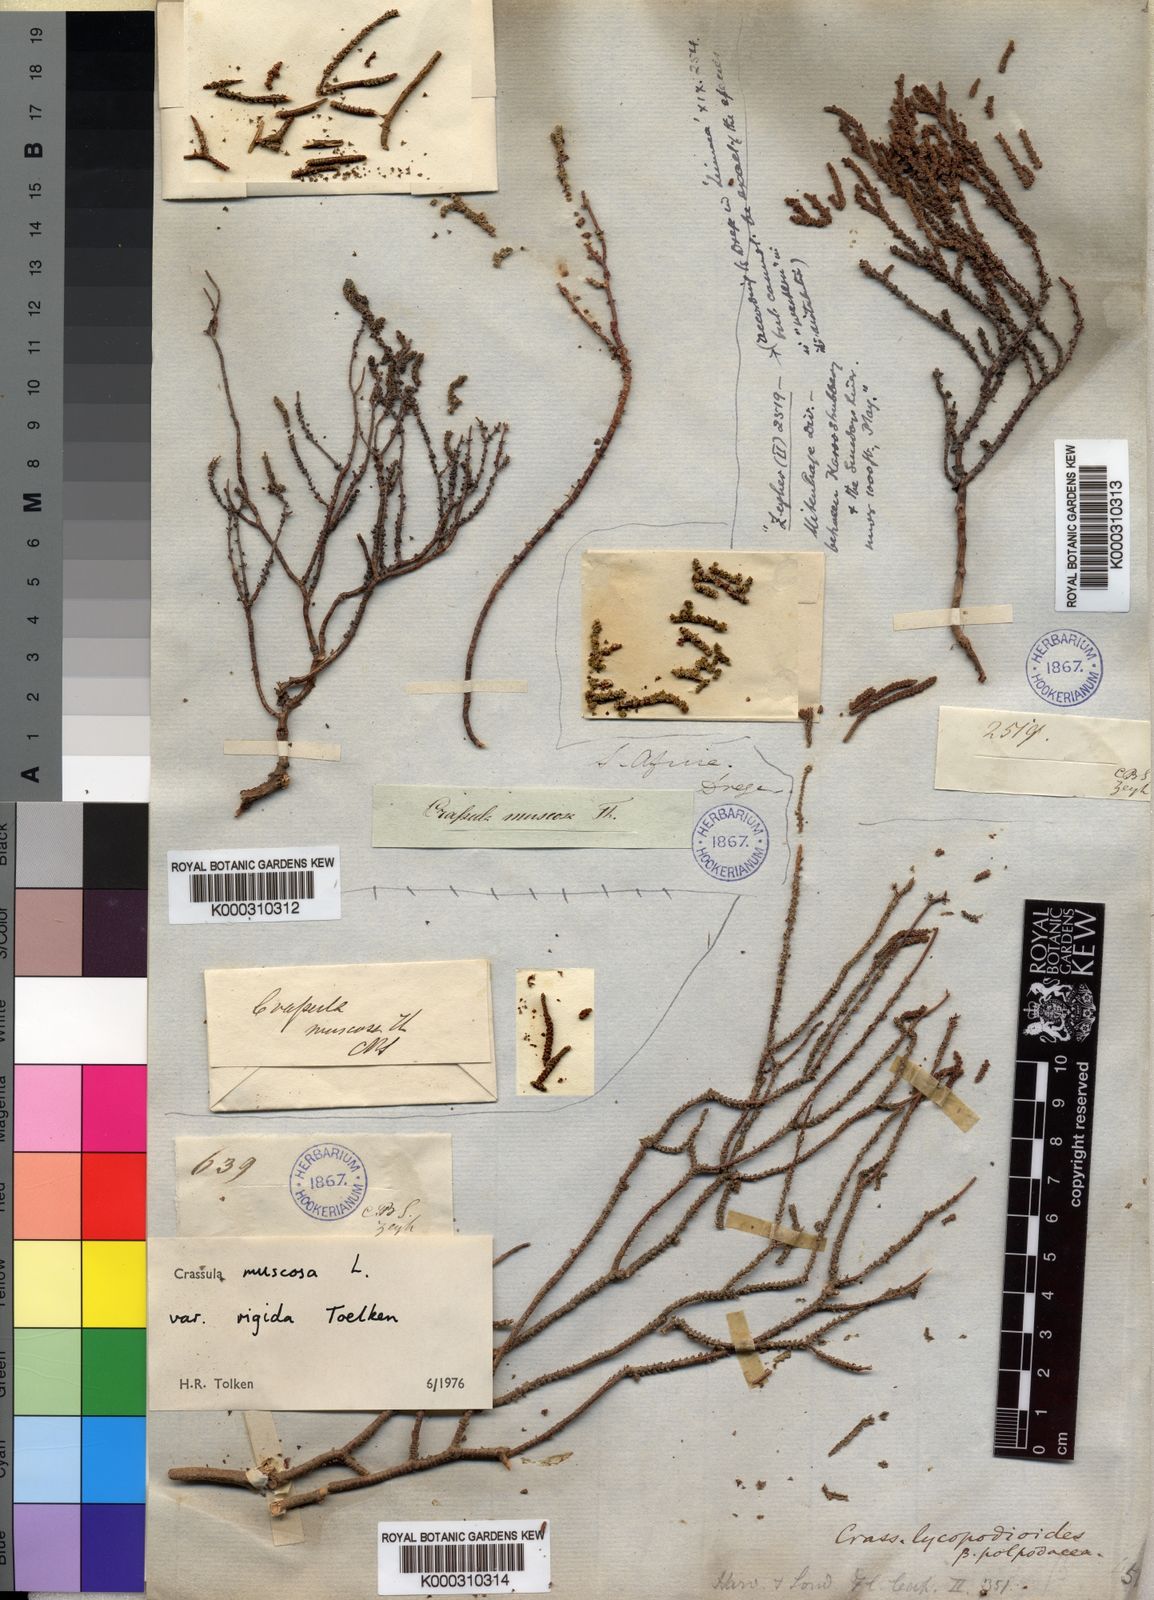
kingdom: Plantae
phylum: Tracheophyta
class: Magnoliopsida
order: Saxifragales
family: Crassulaceae
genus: Crassula
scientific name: Crassula muscosa
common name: Toy-cypress
